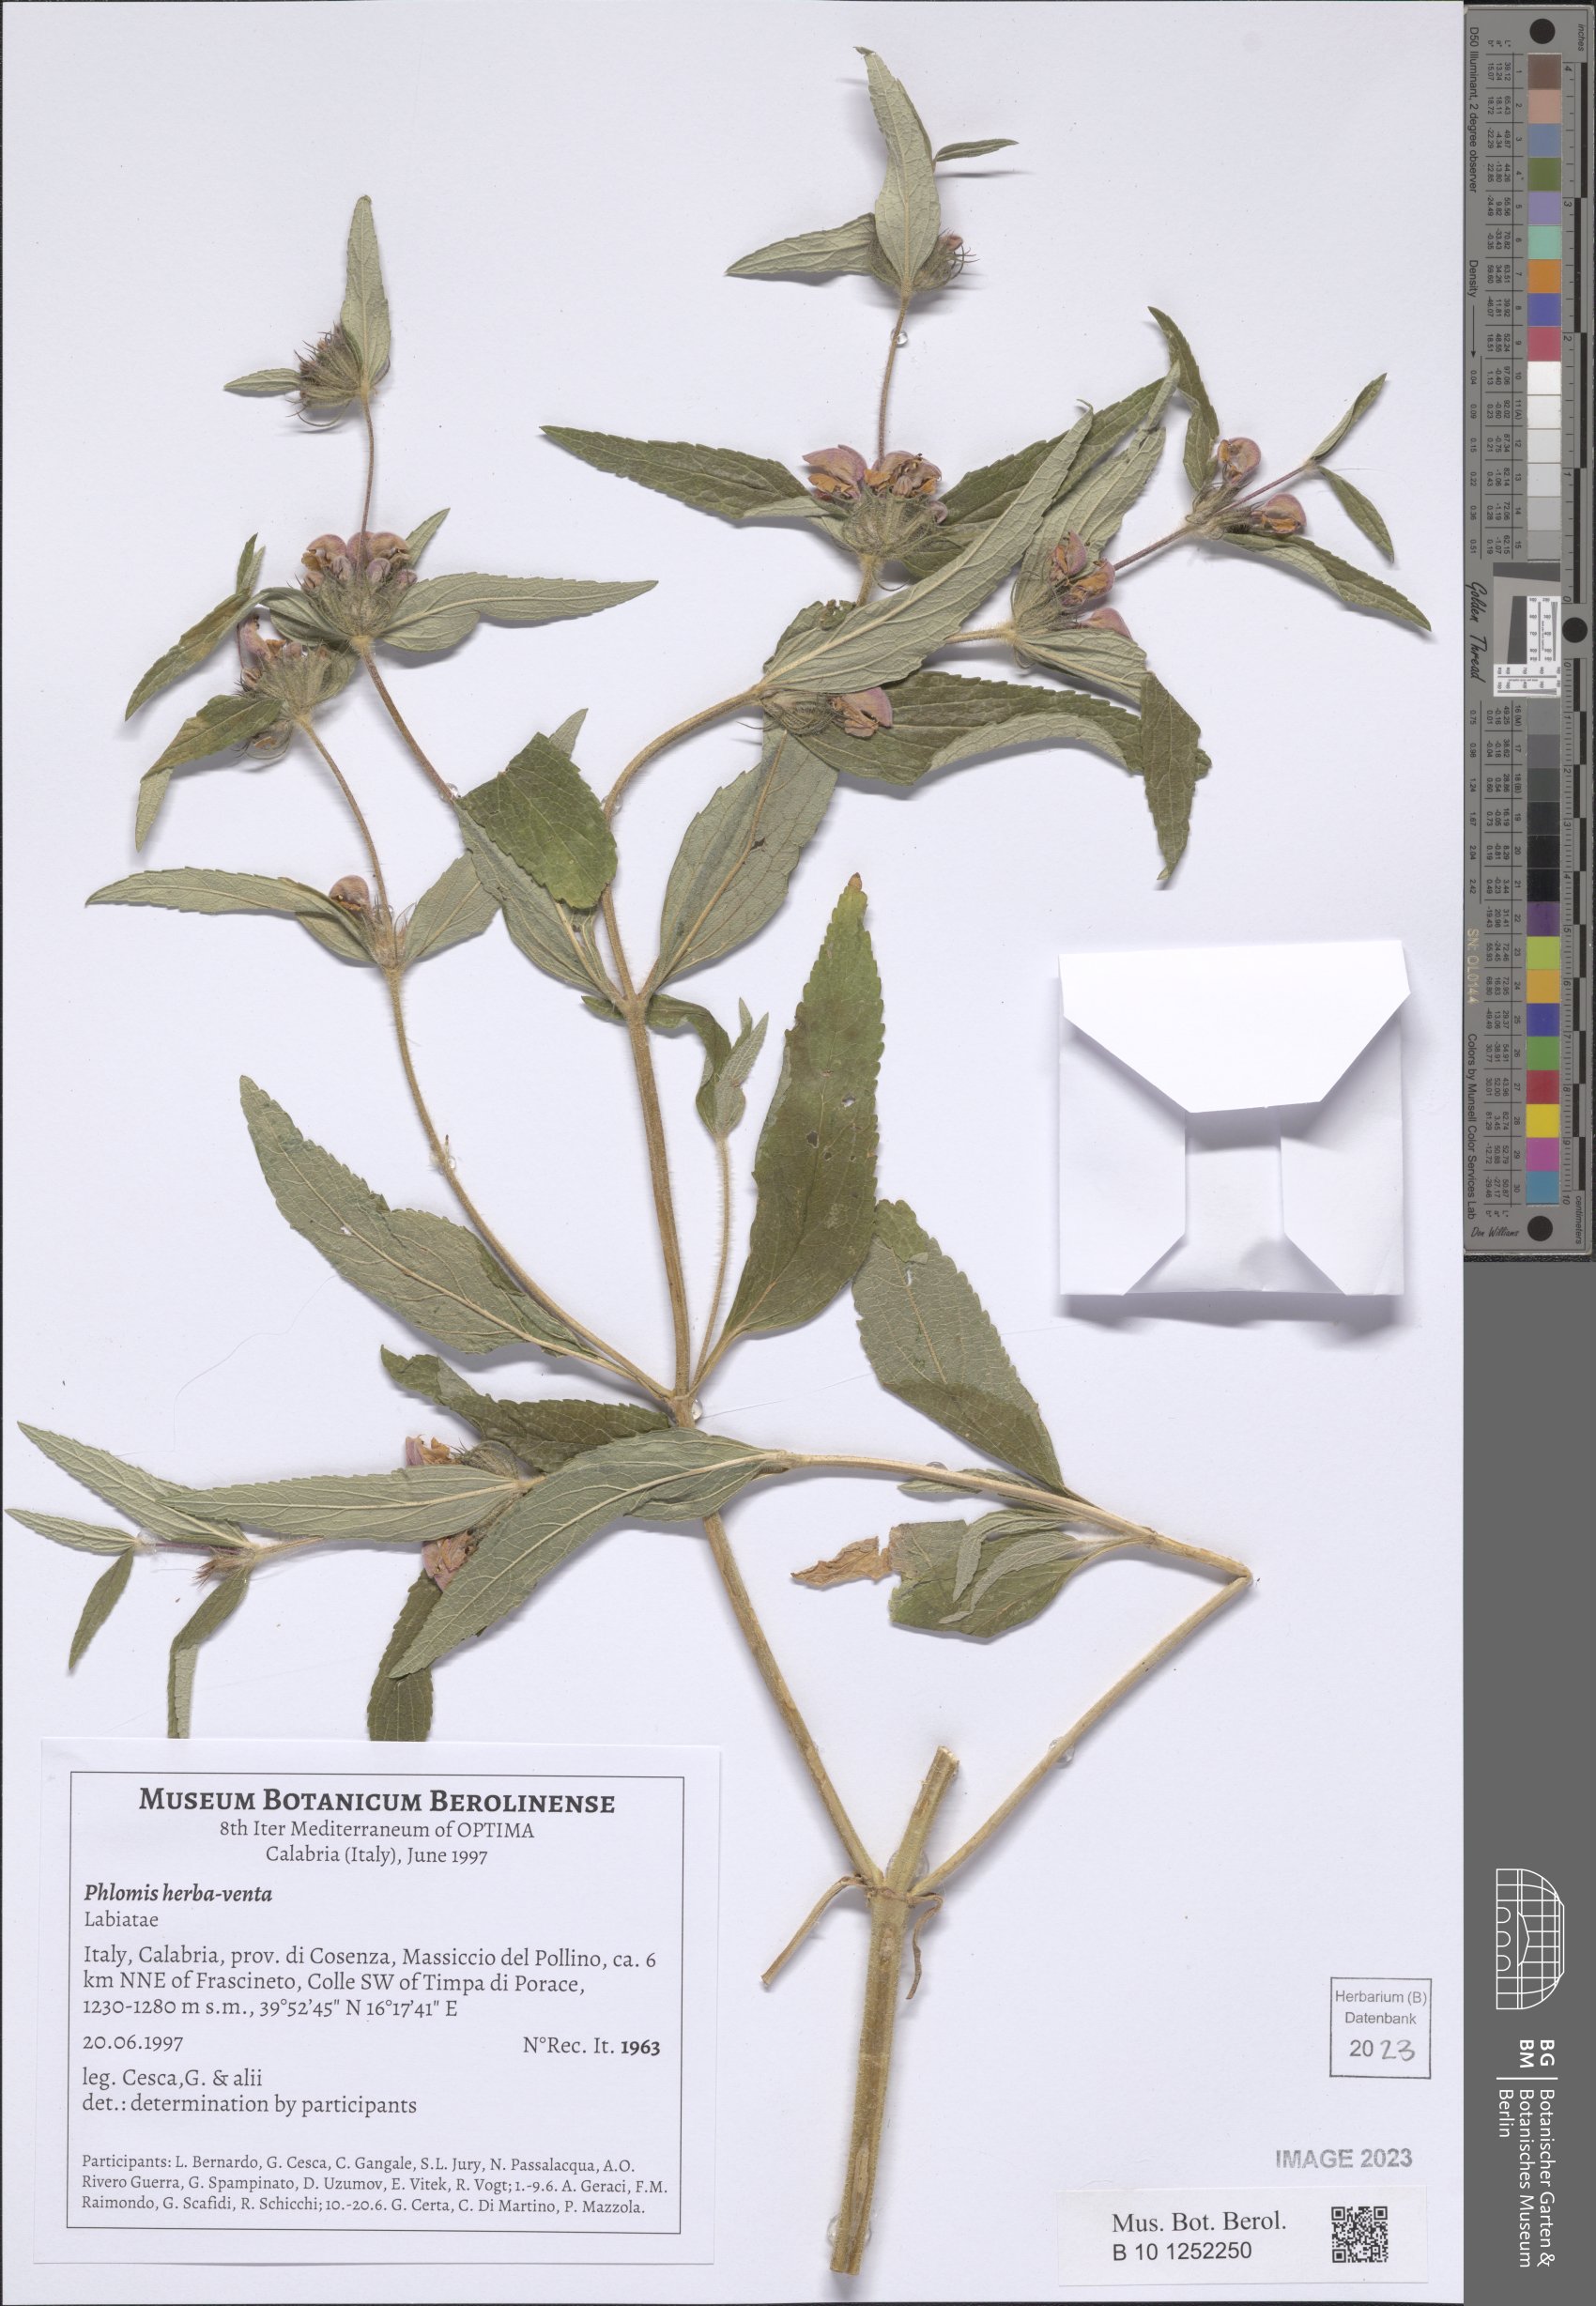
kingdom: Plantae
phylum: Tracheophyta
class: Magnoliopsida
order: Lamiales
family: Lamiaceae
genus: Phlomis
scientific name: Phlomis herba-venti
